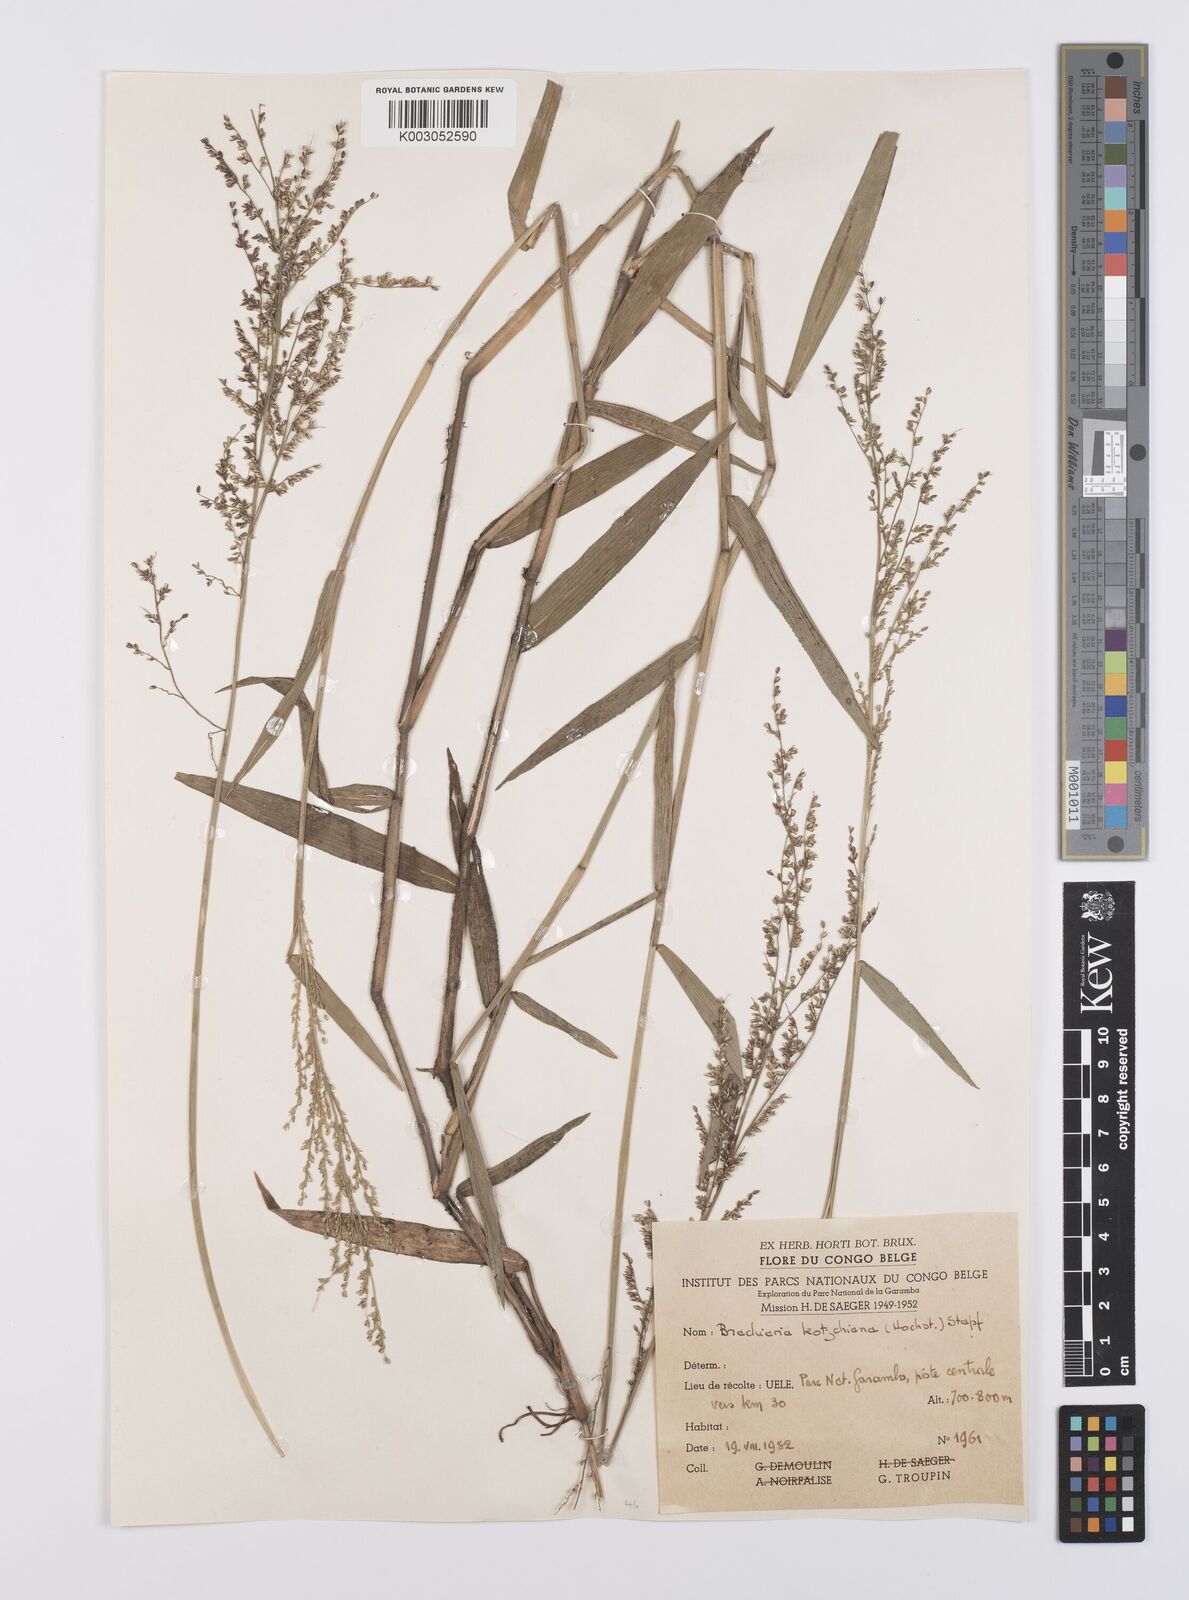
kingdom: Plantae
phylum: Tracheophyta
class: Liliopsida
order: Poales
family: Poaceae
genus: Urochloa
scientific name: Urochloa comata
